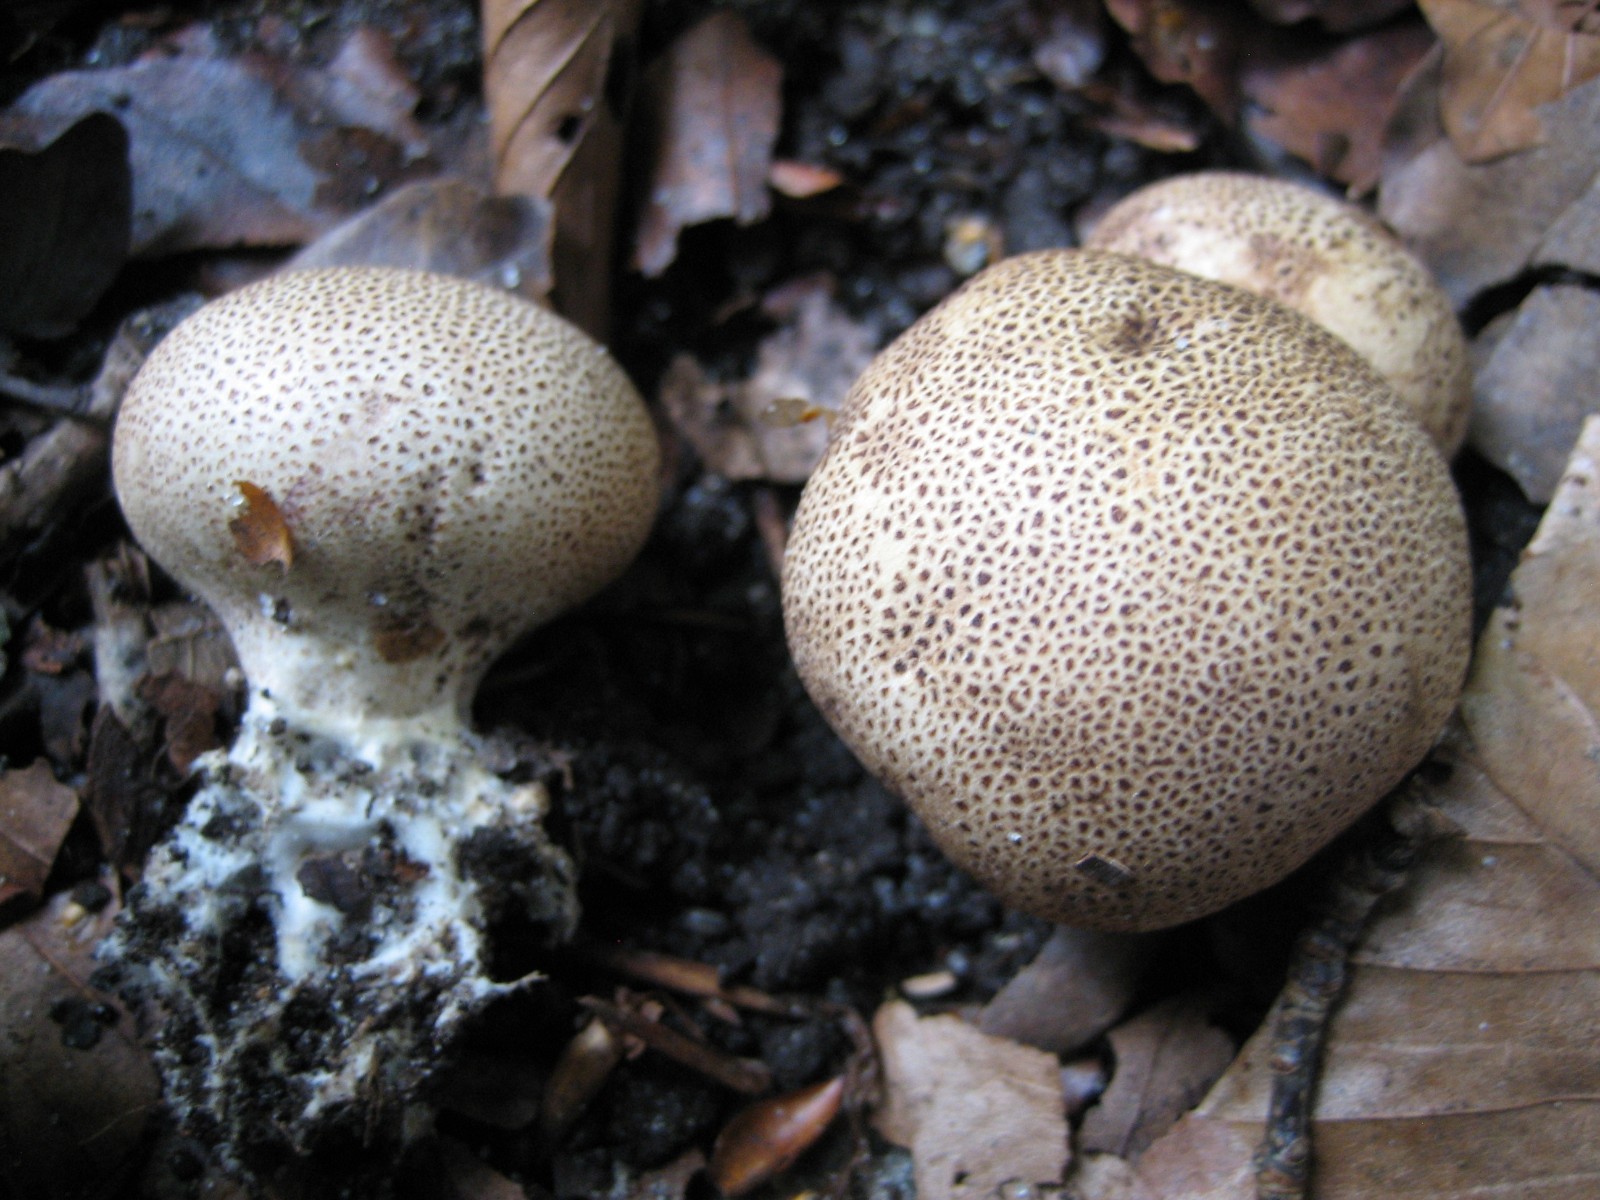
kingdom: Fungi
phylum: Basidiomycota
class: Agaricomycetes
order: Boletales
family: Sclerodermataceae
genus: Scleroderma
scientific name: Scleroderma verrucosum
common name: stilket bruskbold
